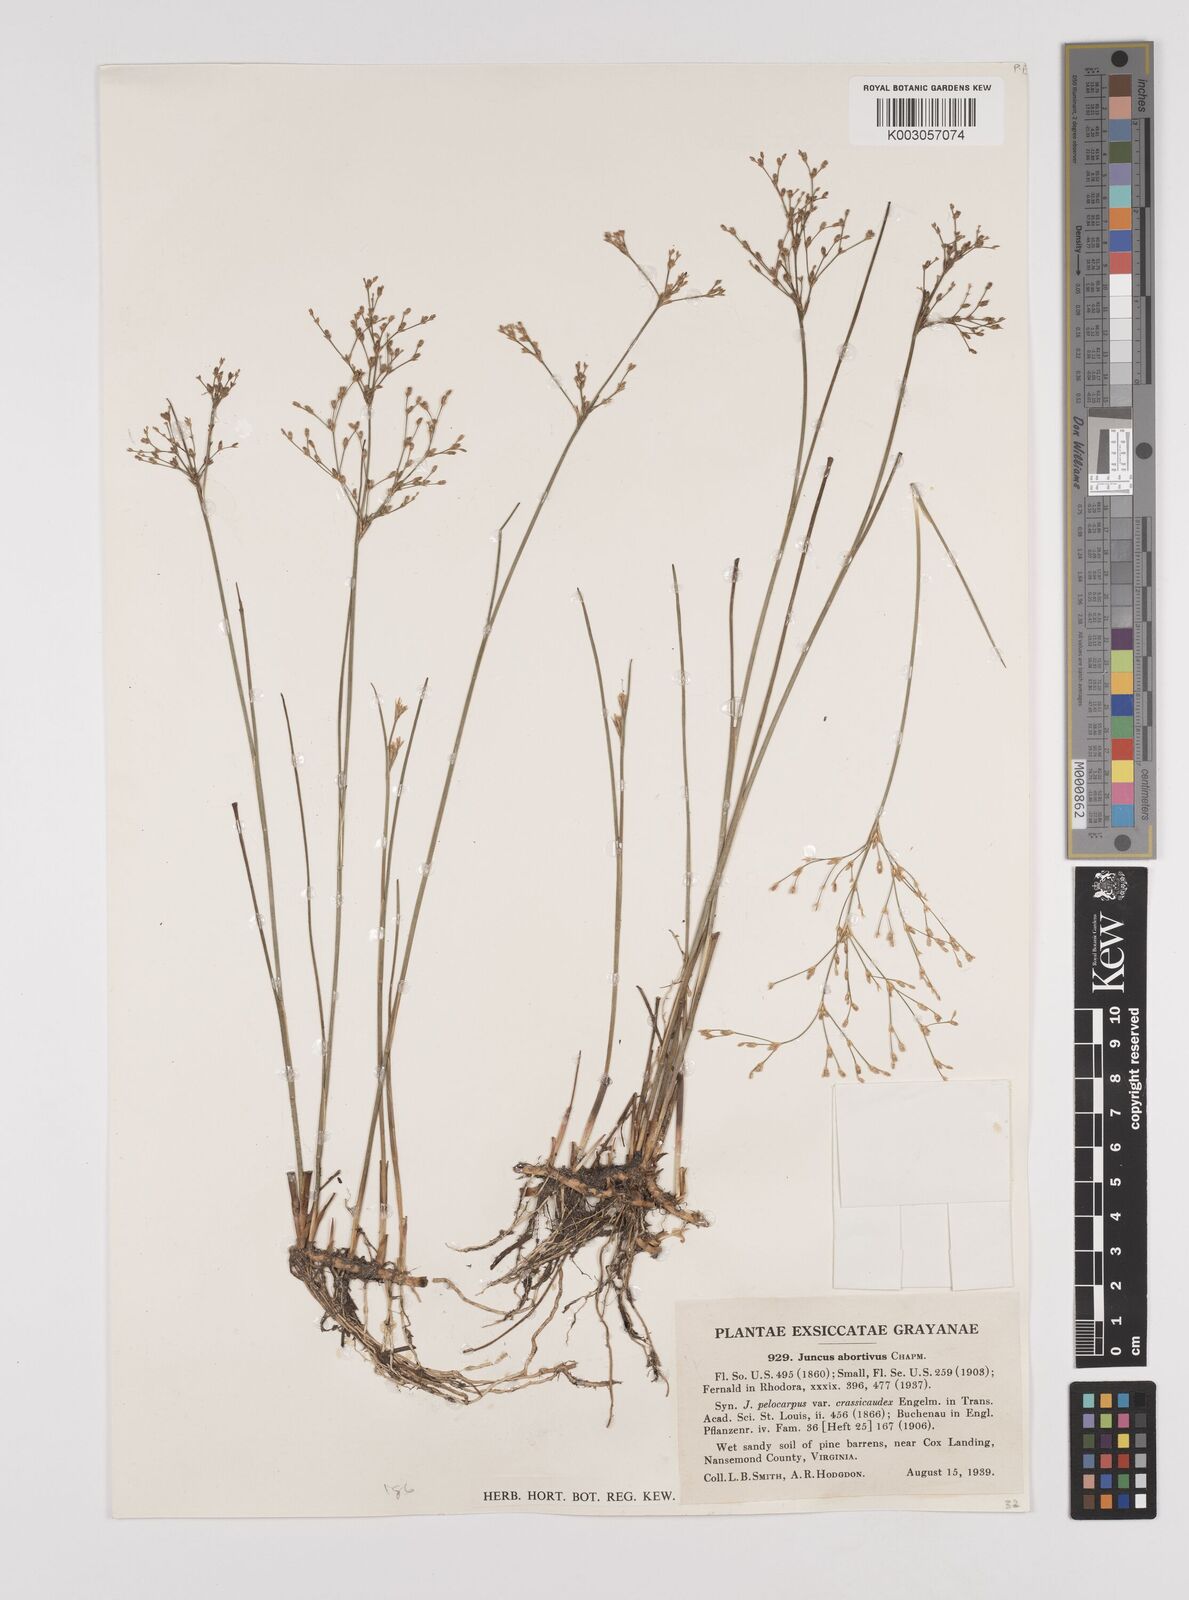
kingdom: Plantae
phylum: Tracheophyta
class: Liliopsida
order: Poales
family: Juncaceae
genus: Juncus
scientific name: Juncus pelocarpus
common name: Brown-fruited rush
